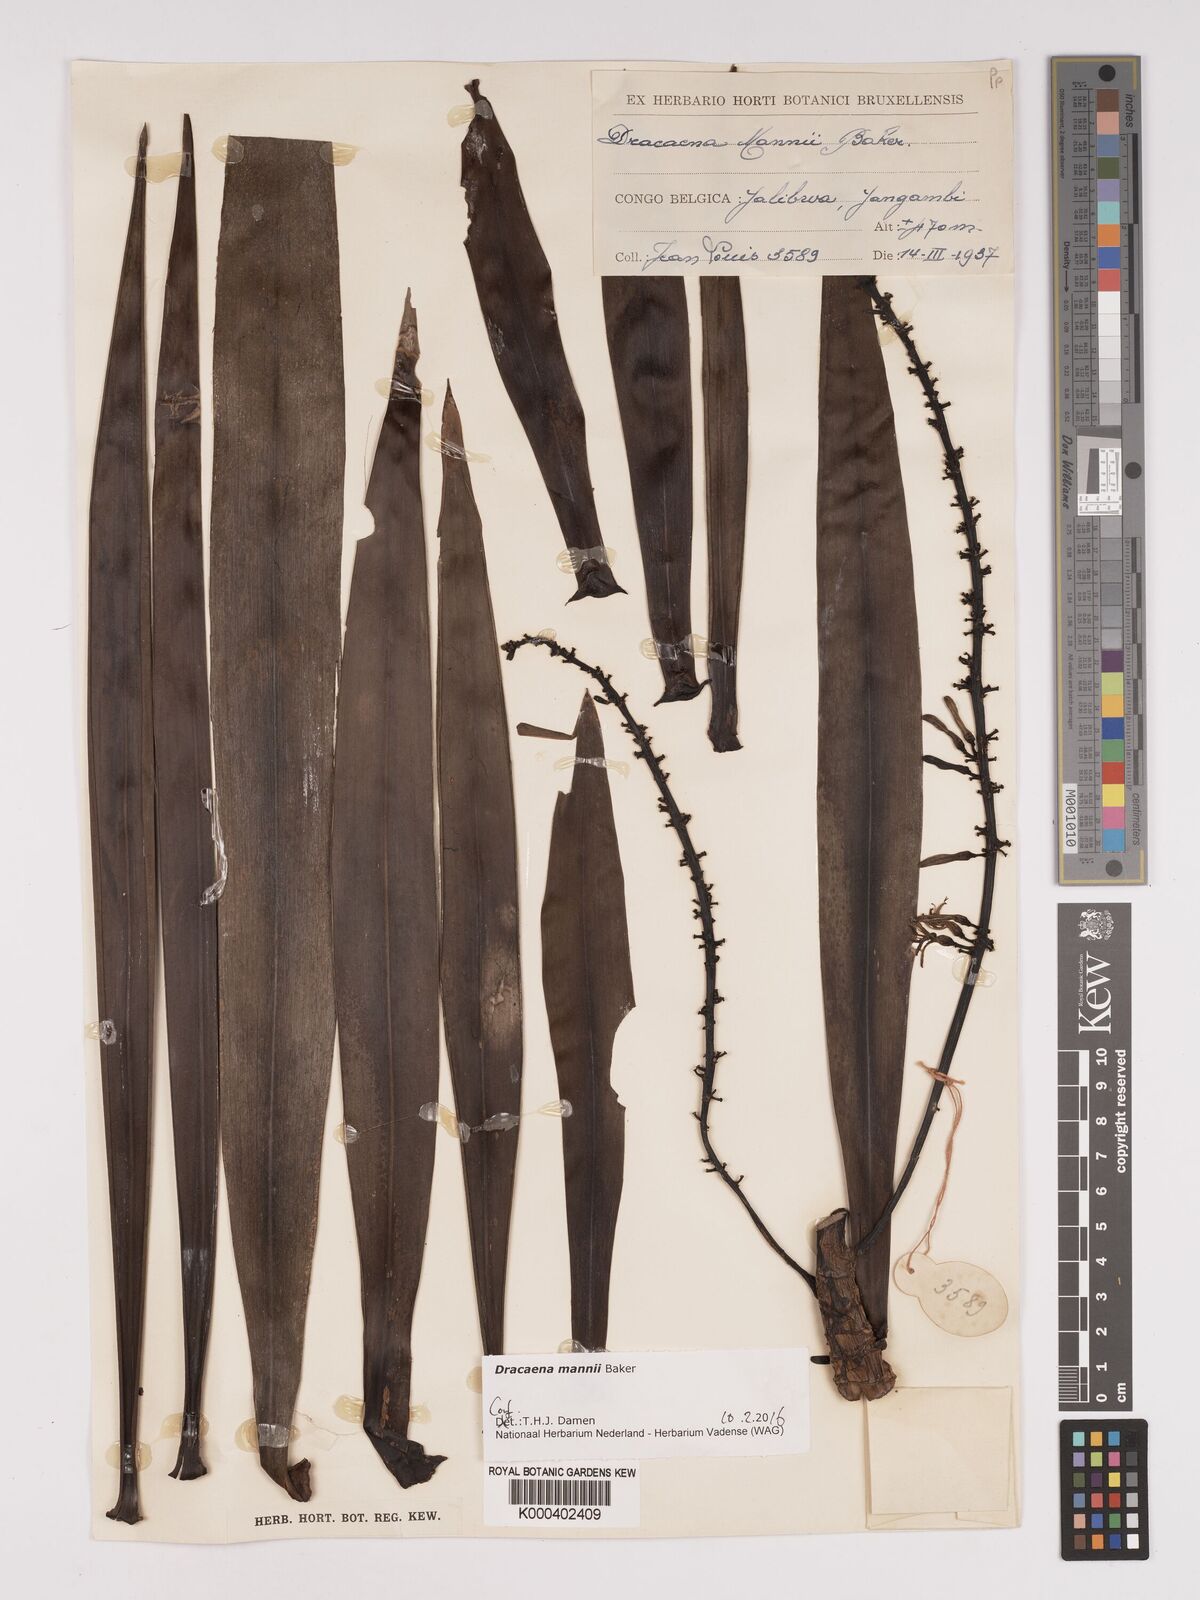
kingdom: Plantae
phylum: Tracheophyta
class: Liliopsida
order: Asparagales
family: Asparagaceae
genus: Dracaena
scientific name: Dracaena mannii
